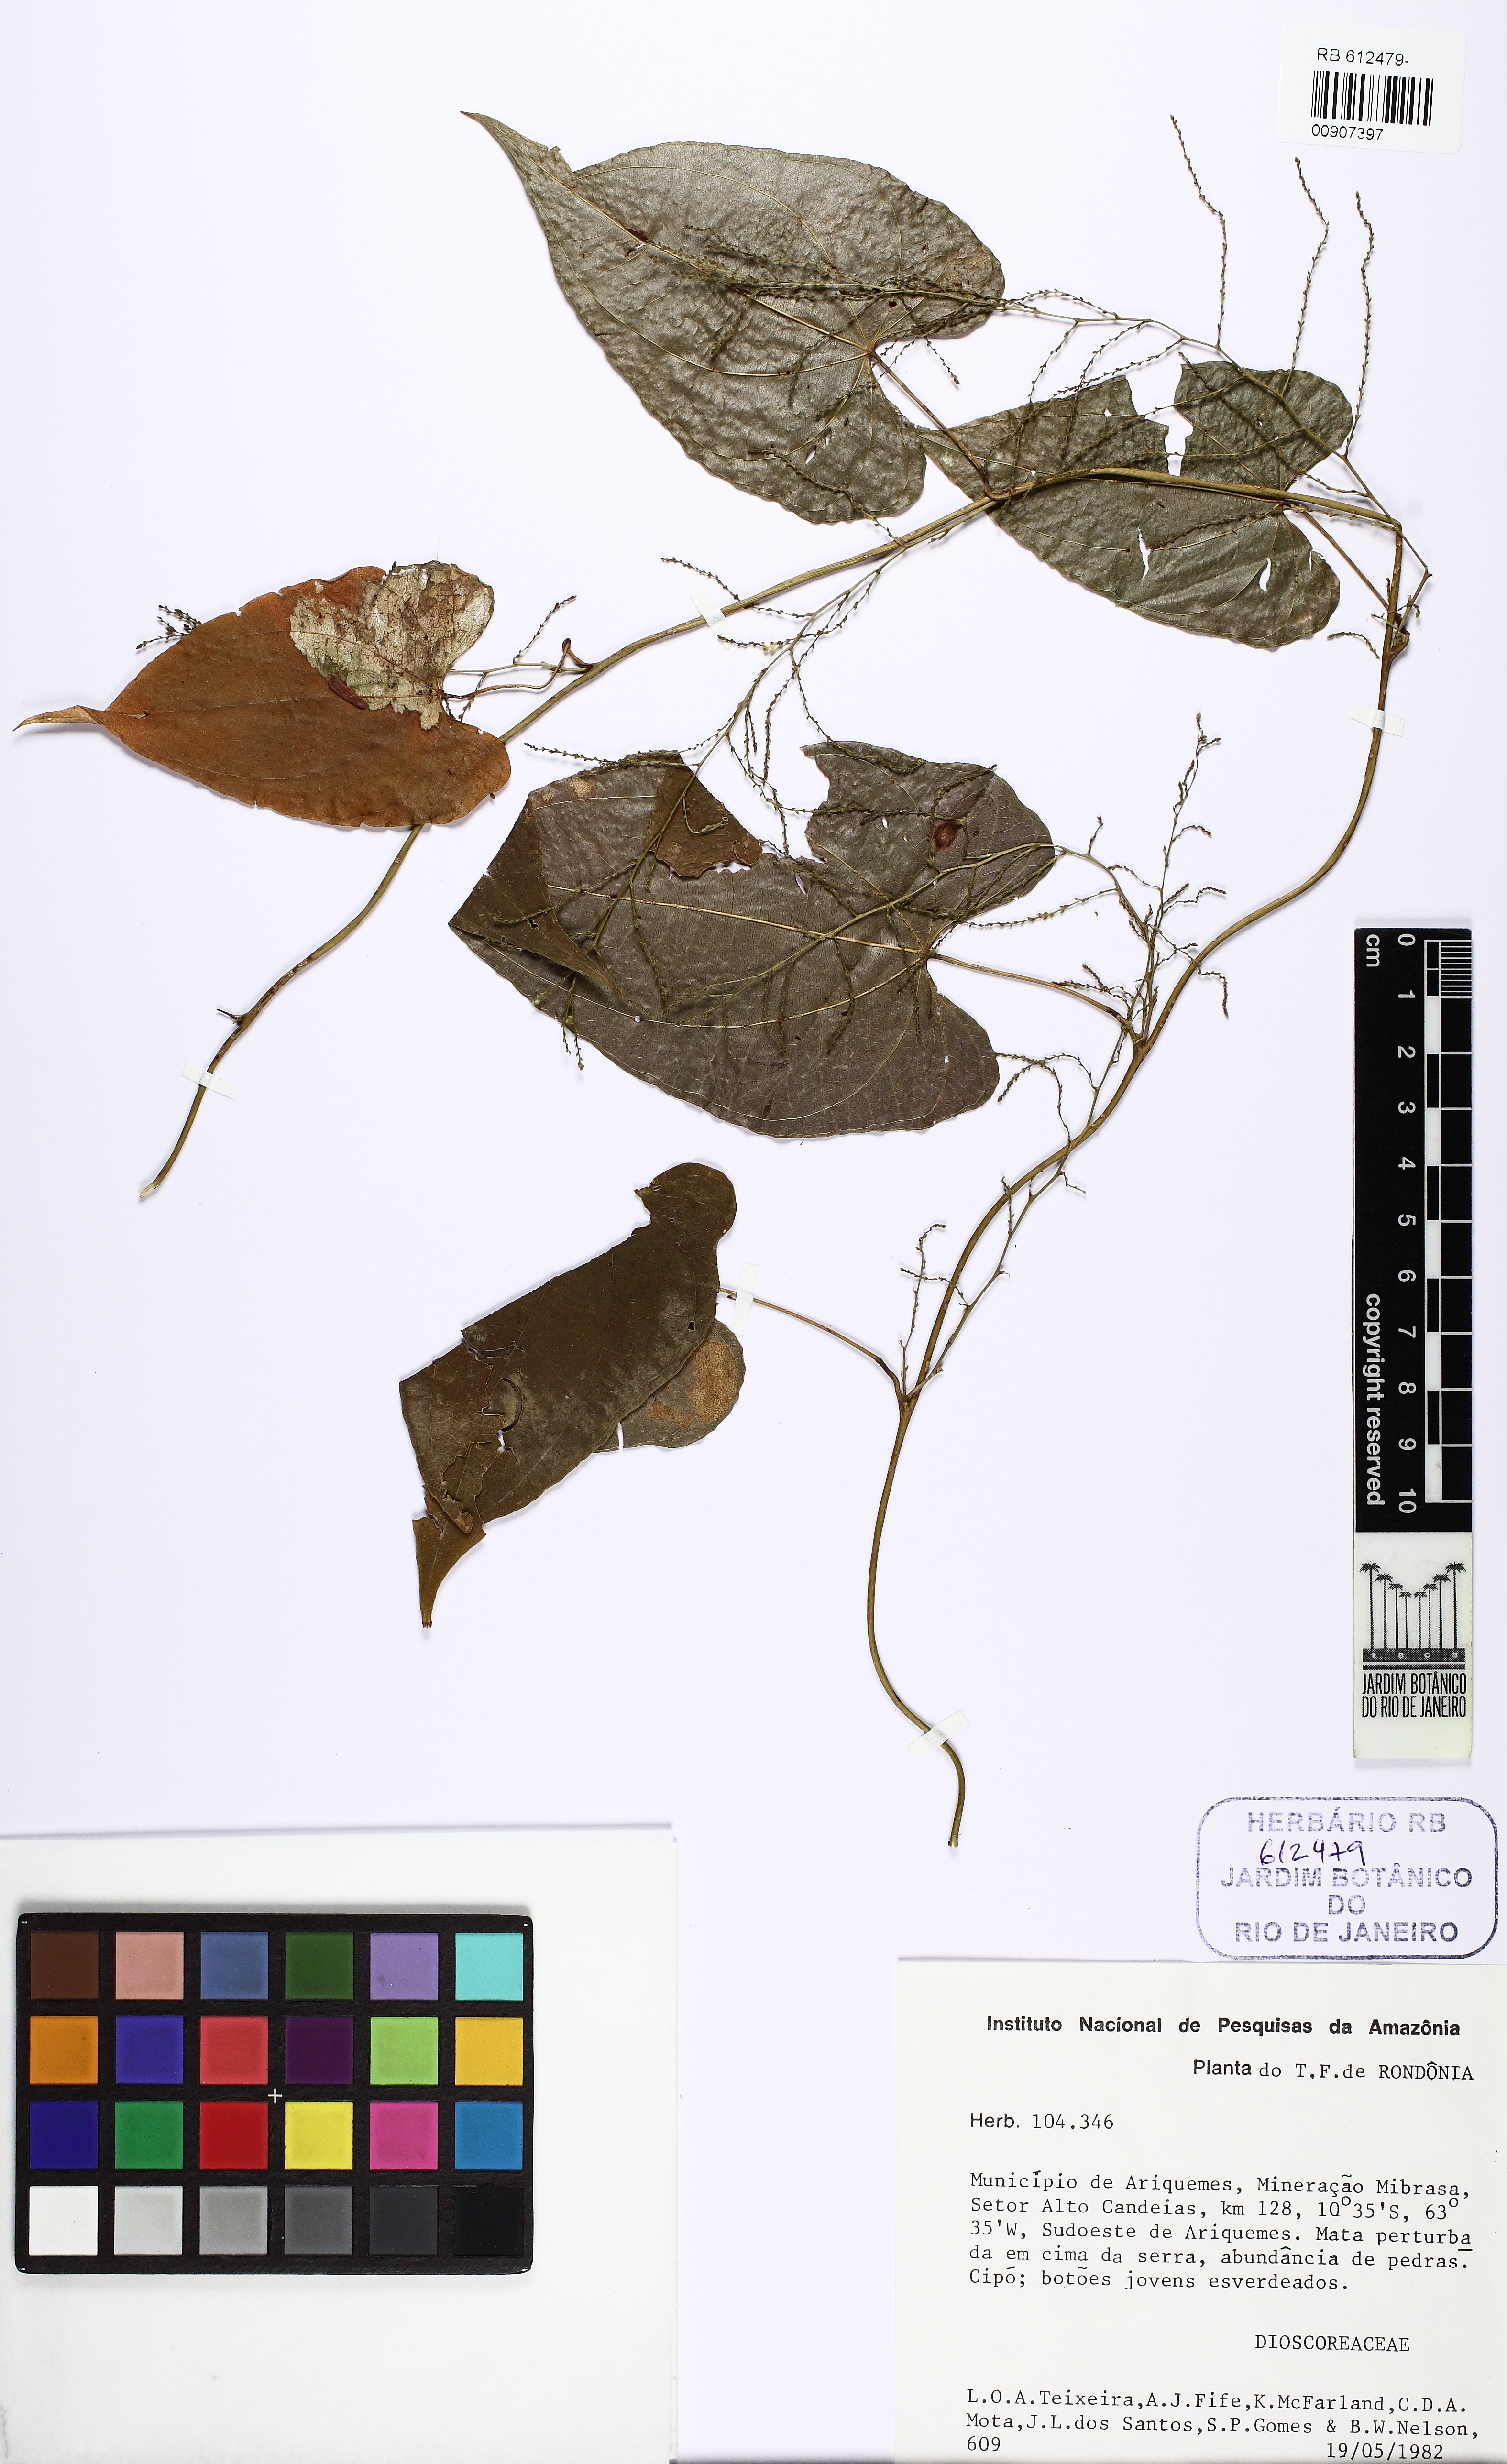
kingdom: Plantae
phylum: Tracheophyta
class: Liliopsida
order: Dioscoreales
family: Dioscoreaceae
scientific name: Dioscoreaceae
